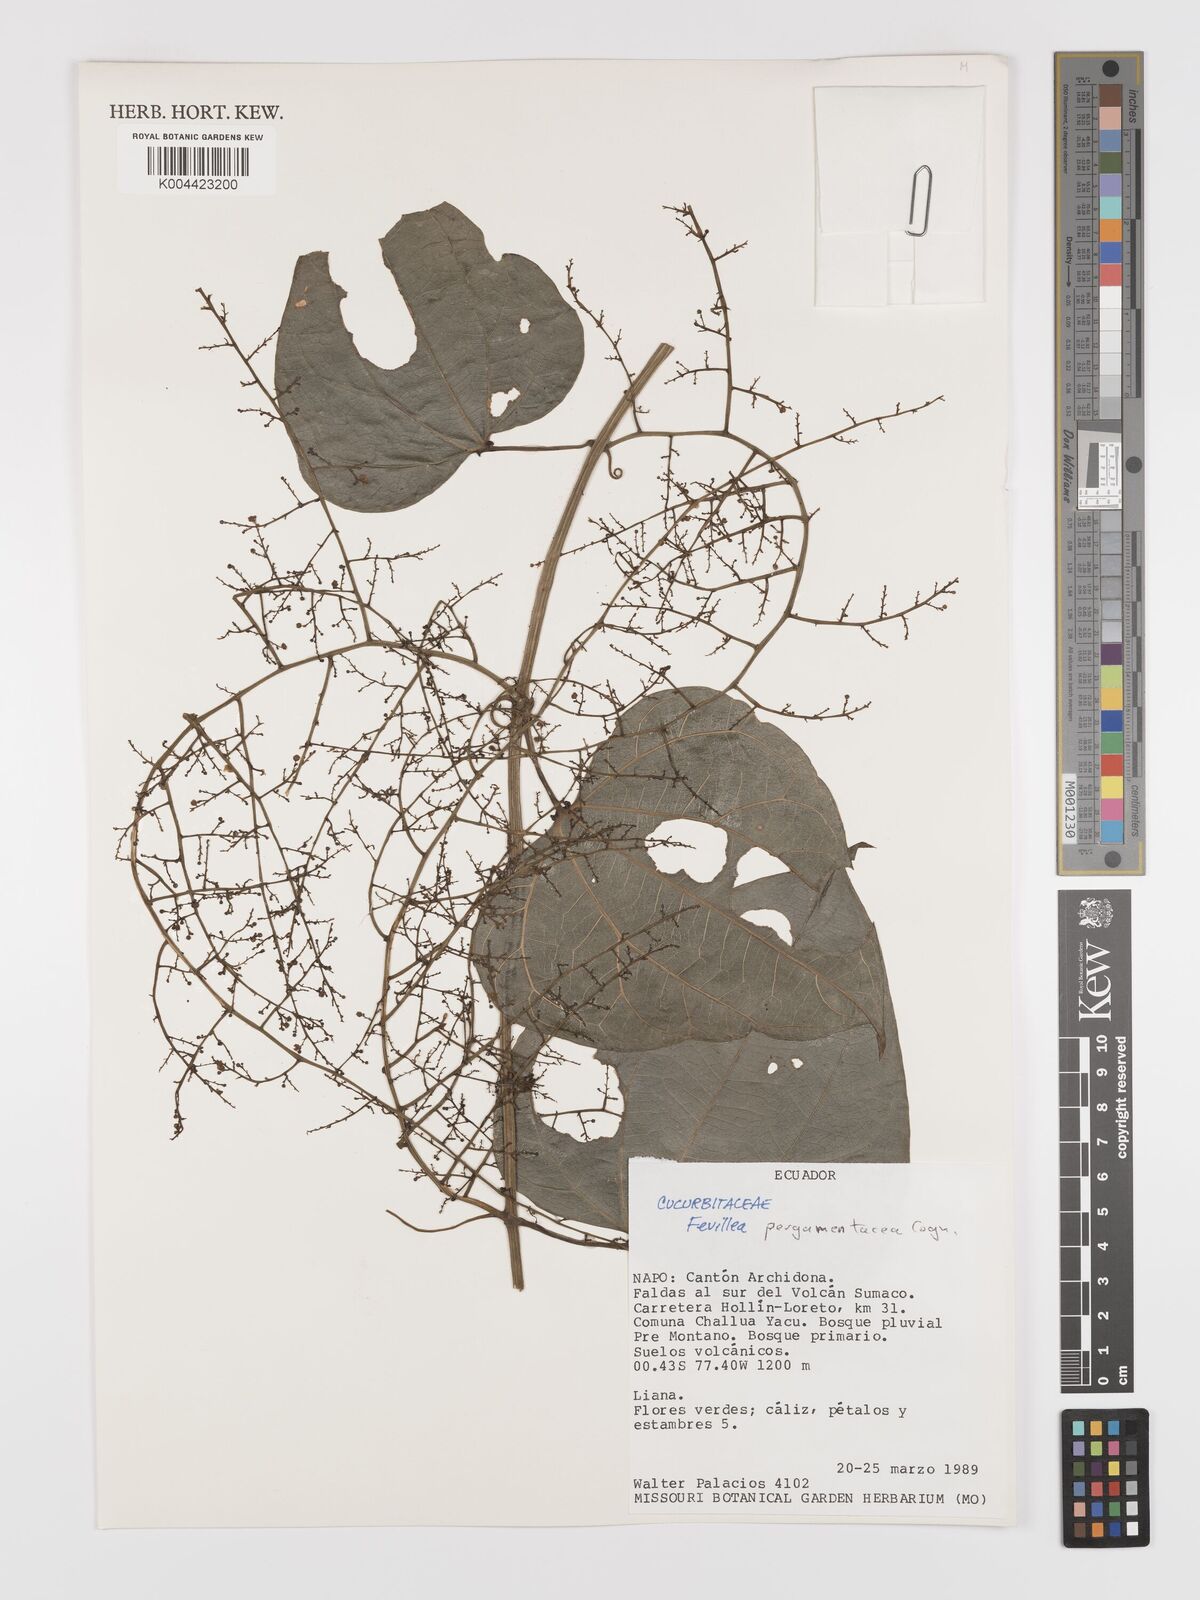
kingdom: Plantae
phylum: Tracheophyta
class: Magnoliopsida
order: Cucurbitales
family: Cucurbitaceae
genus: Fevillea
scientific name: Fevillea pergamentacea
